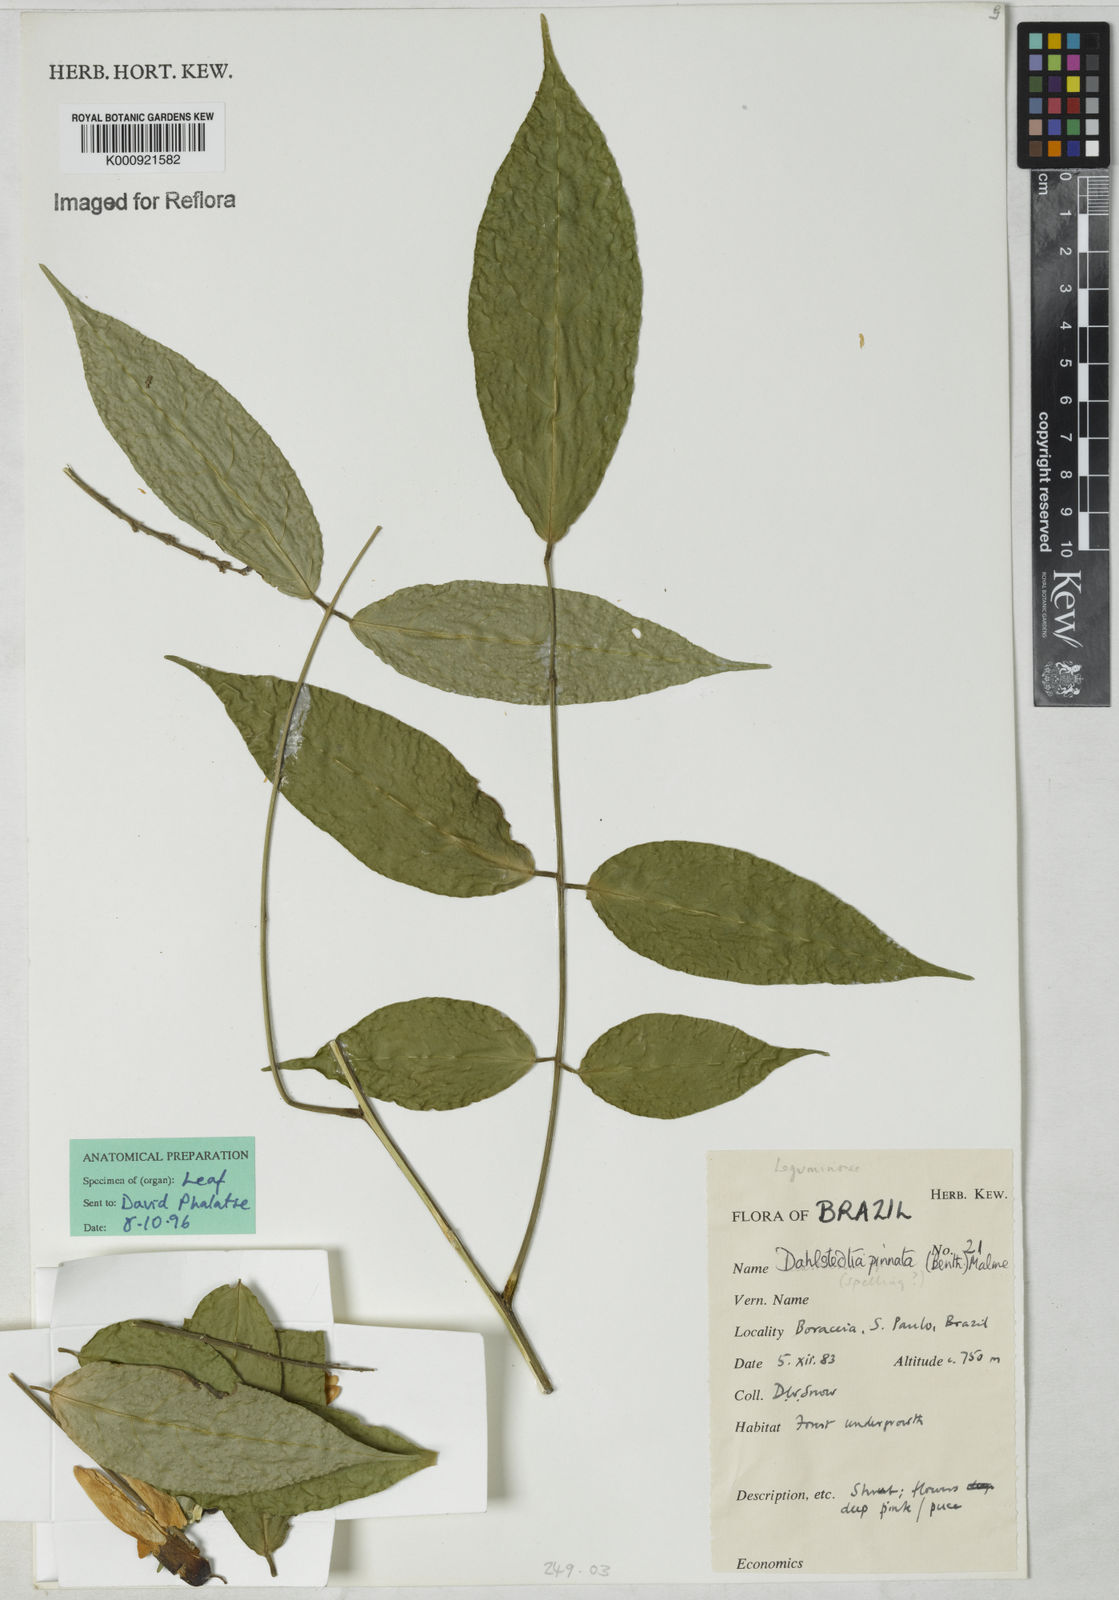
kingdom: Plantae
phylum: Tracheophyta
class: Magnoliopsida
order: Fabales
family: Fabaceae
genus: Dahlstedtia
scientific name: Dahlstedtia pinnata
